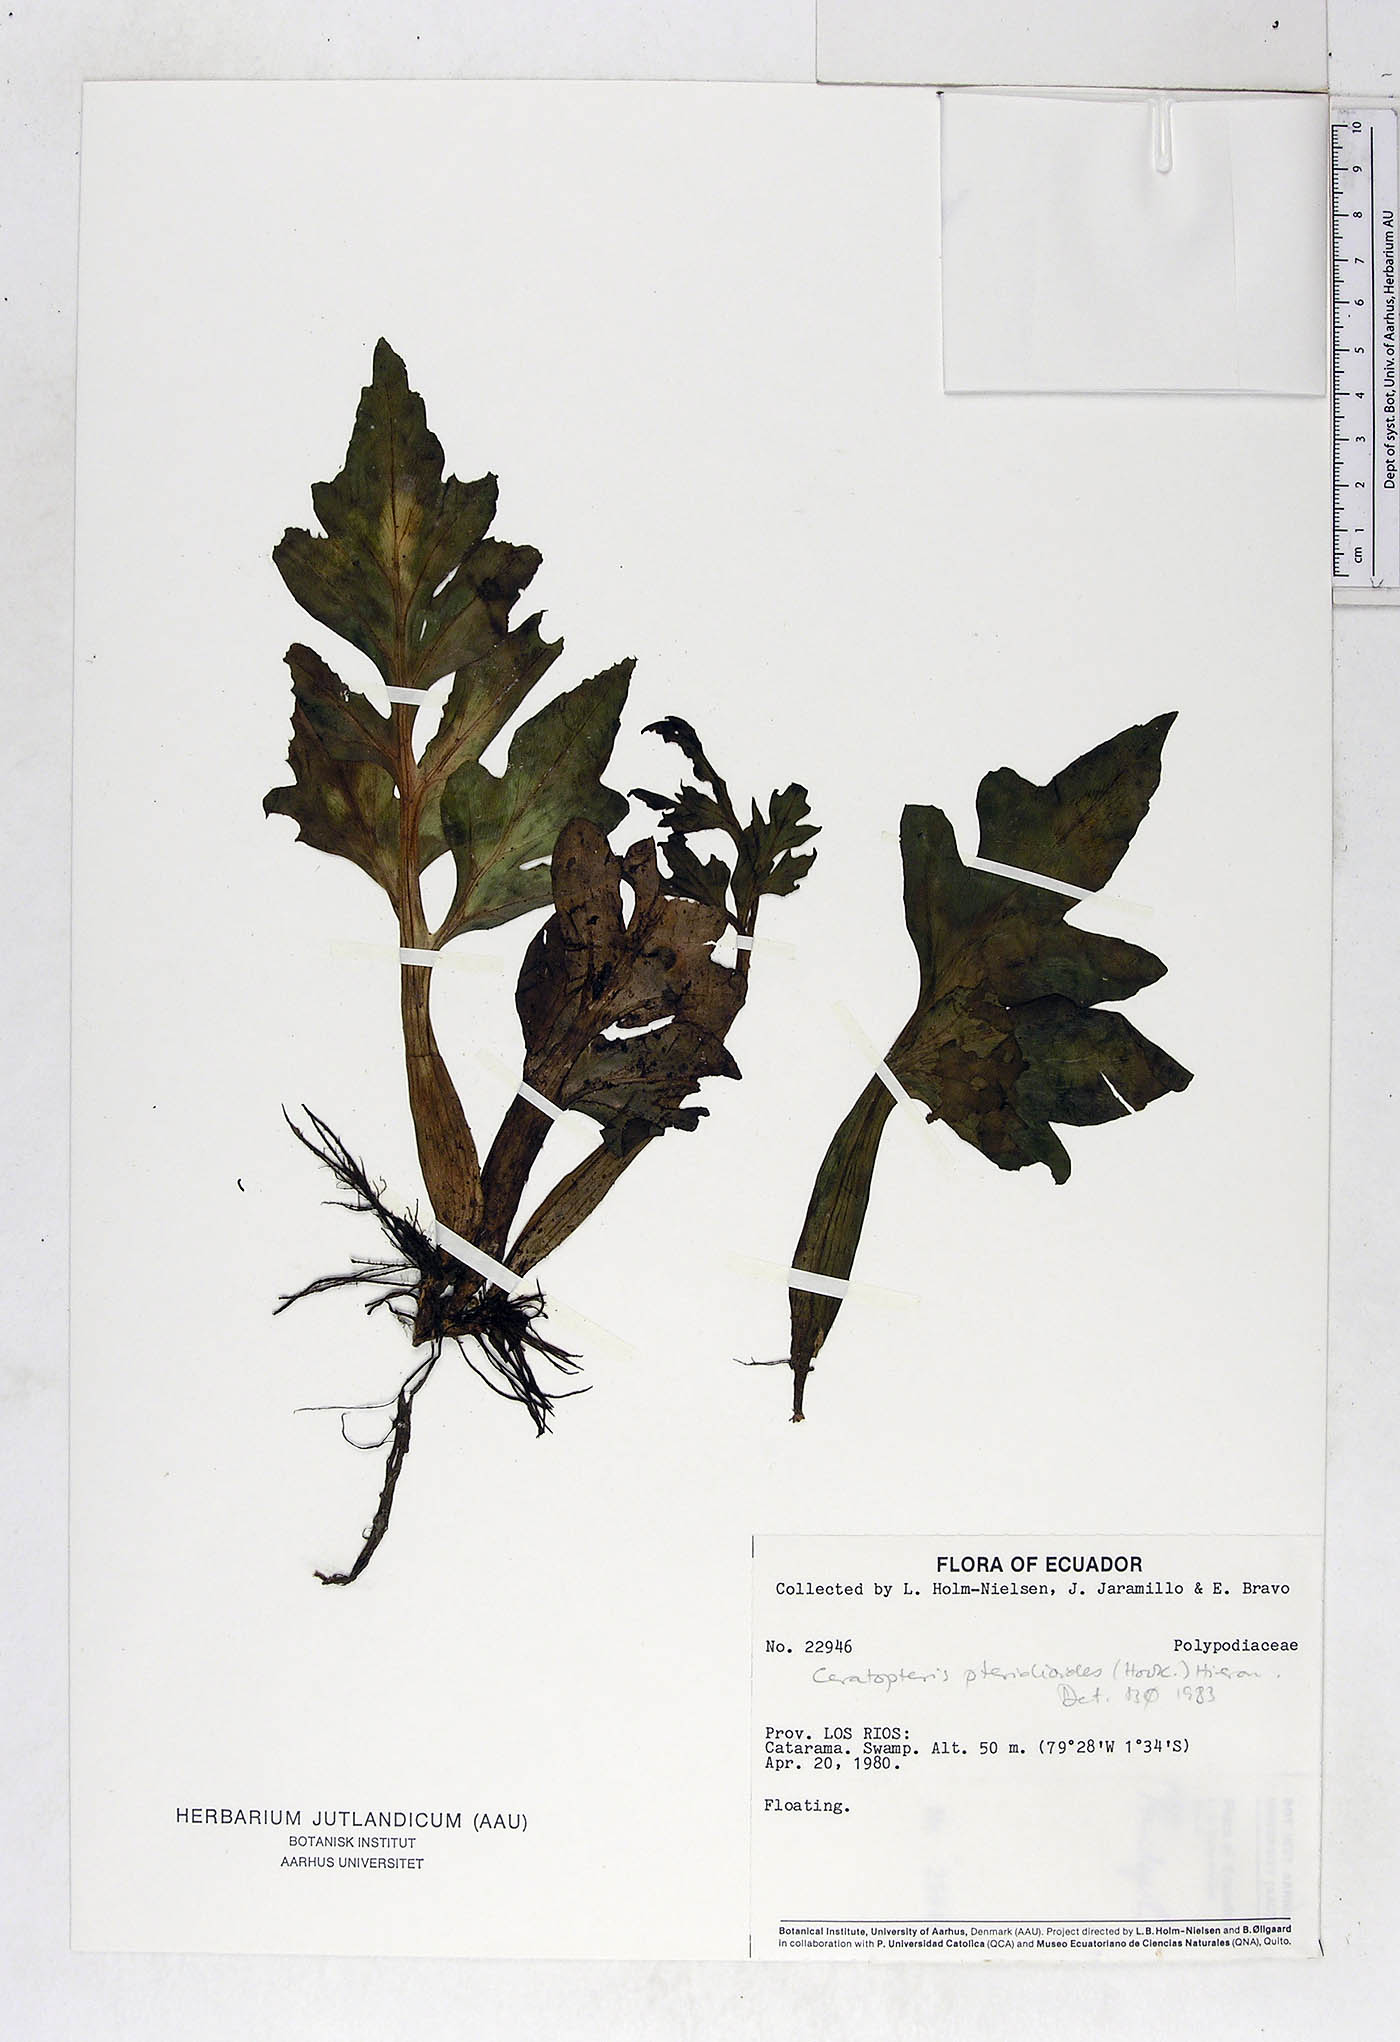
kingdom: Plantae
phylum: Tracheophyta
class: Polypodiopsida
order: Polypodiales
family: Pteridaceae
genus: Ceratopteris
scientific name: Ceratopteris pteridoides
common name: Floating fern
